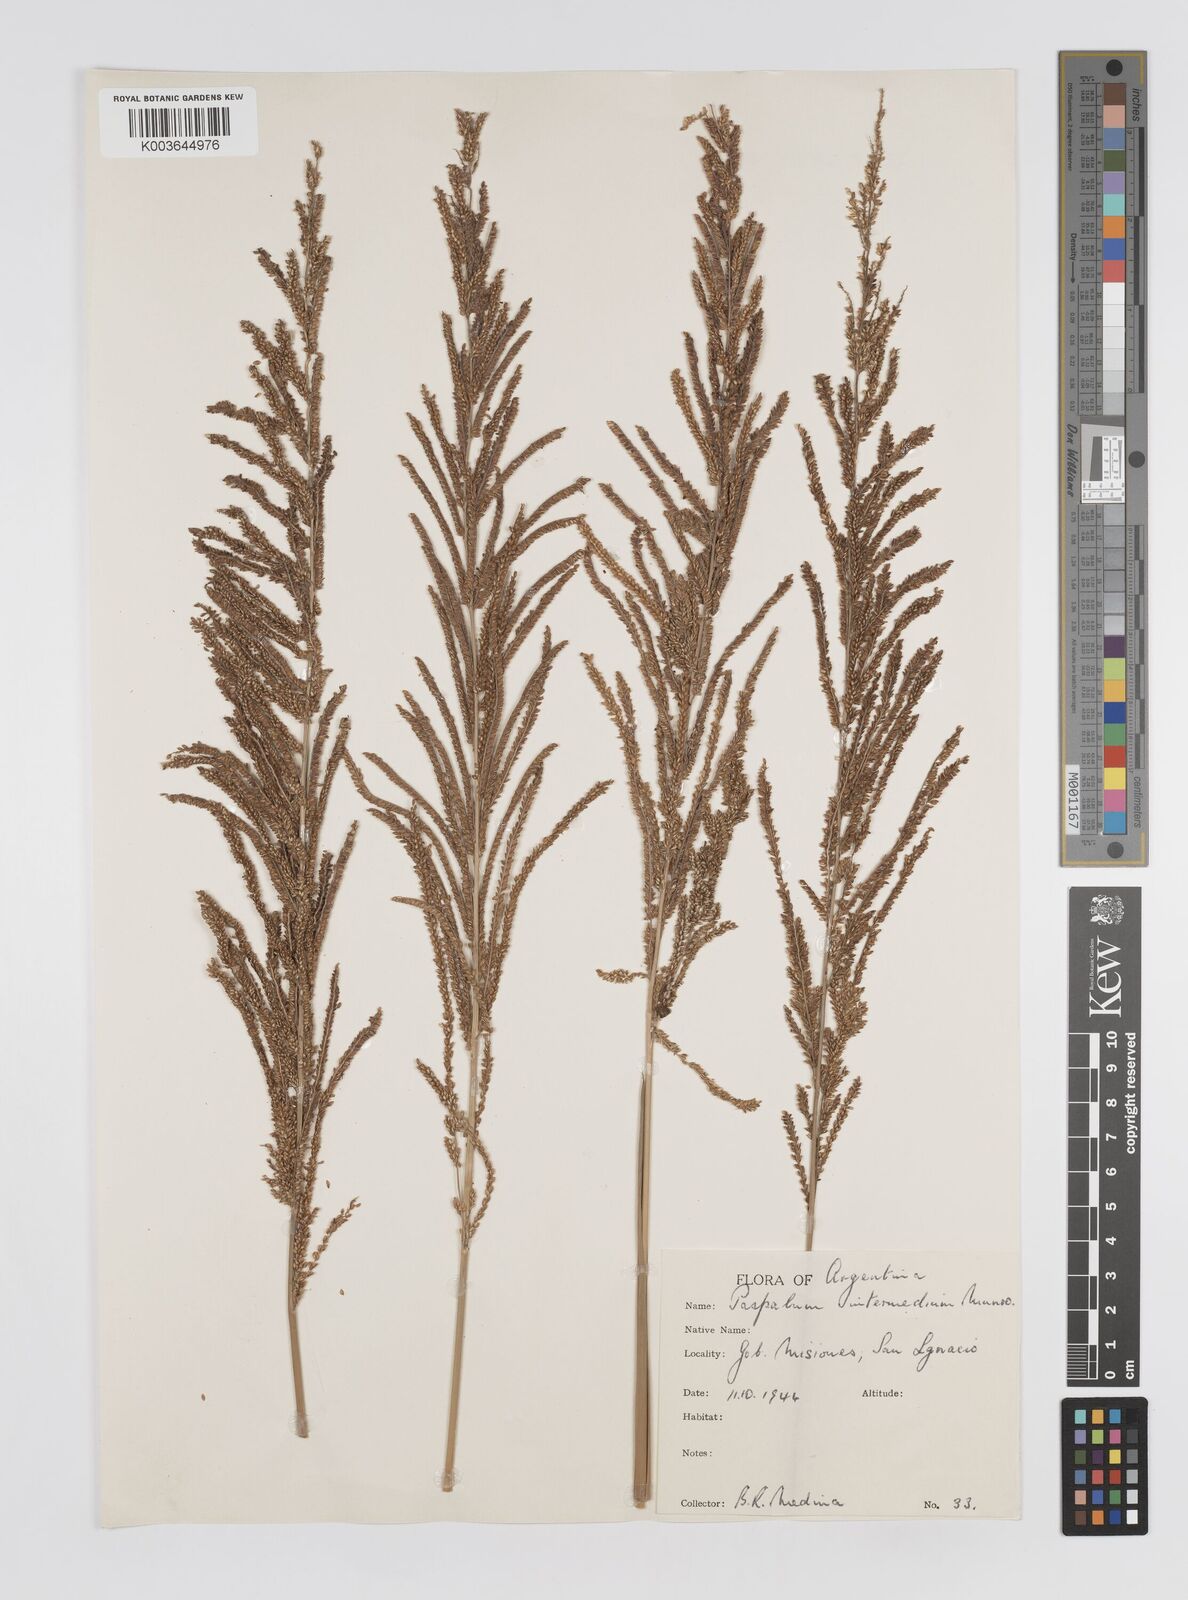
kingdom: Plantae
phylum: Tracheophyta
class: Liliopsida
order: Poales
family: Poaceae
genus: Paspalum
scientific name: Paspalum quadrifarium
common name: Tussock paspalum
